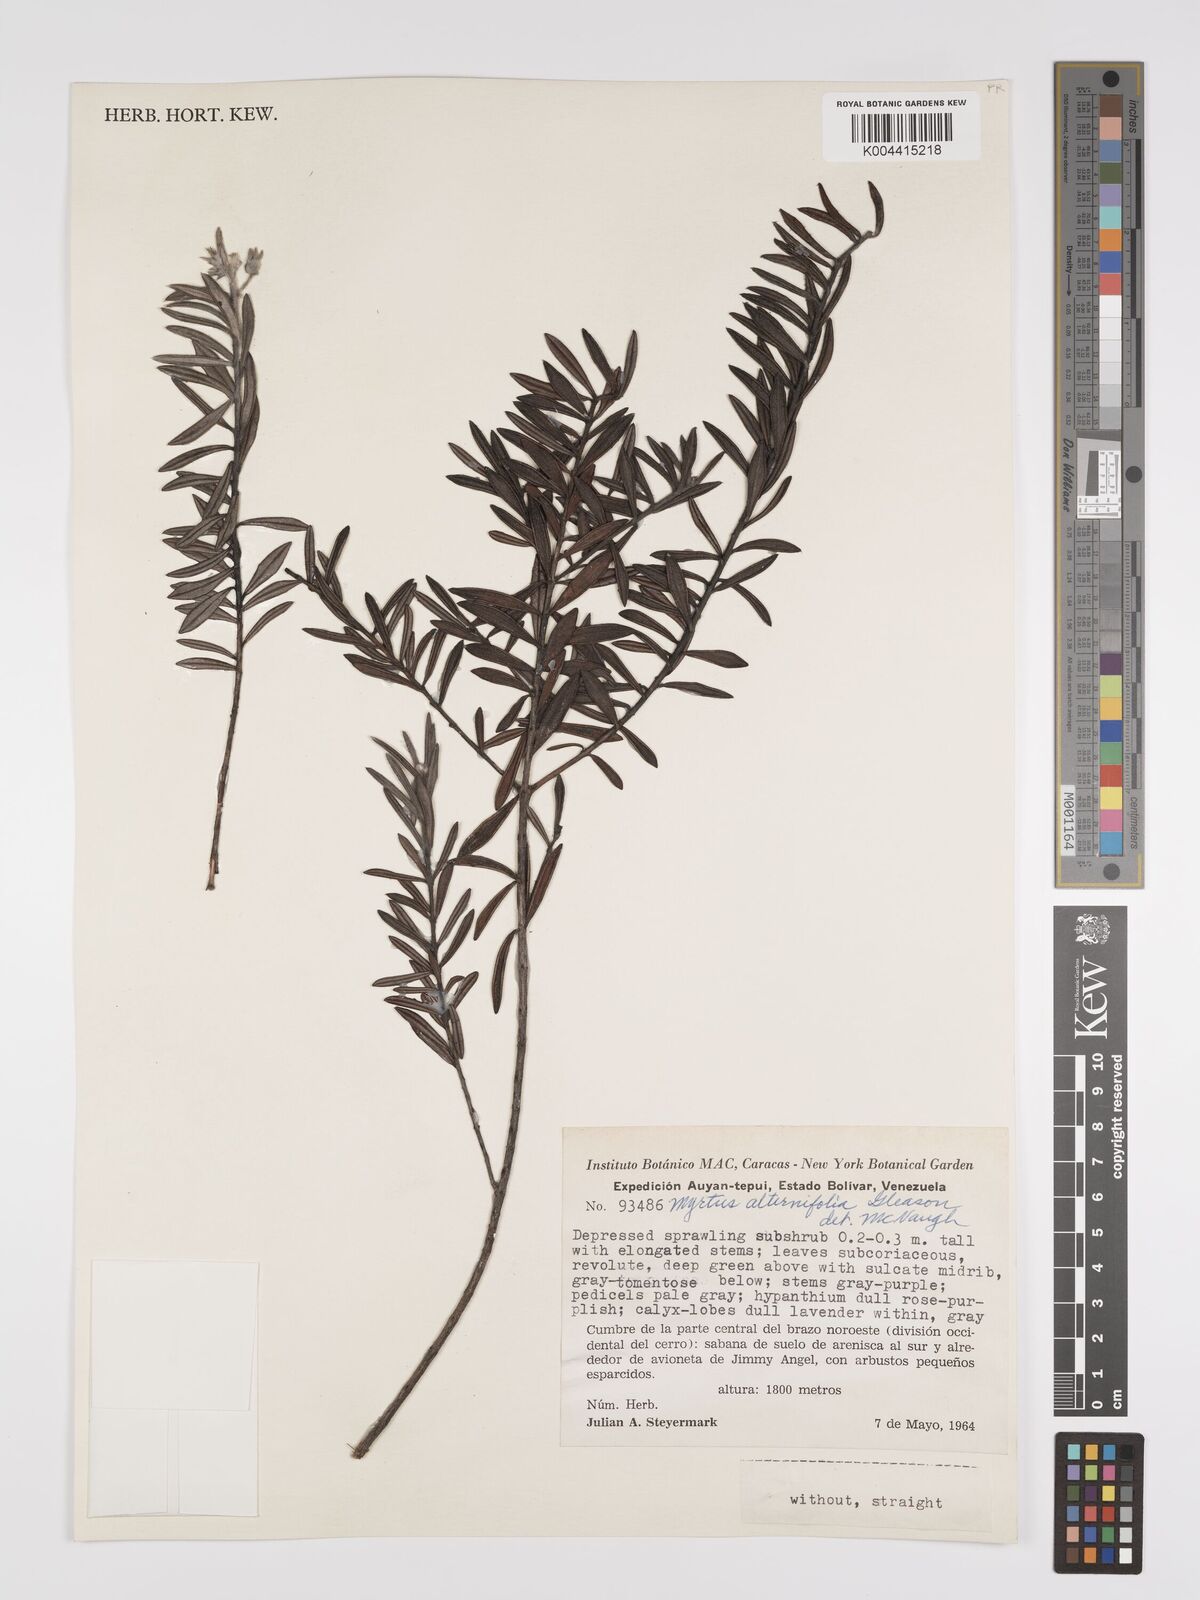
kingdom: Plantae
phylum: Tracheophyta
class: Magnoliopsida
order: Myrtales
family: Myrtaceae
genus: Calycolpus
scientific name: Calycolpus alternifolius
